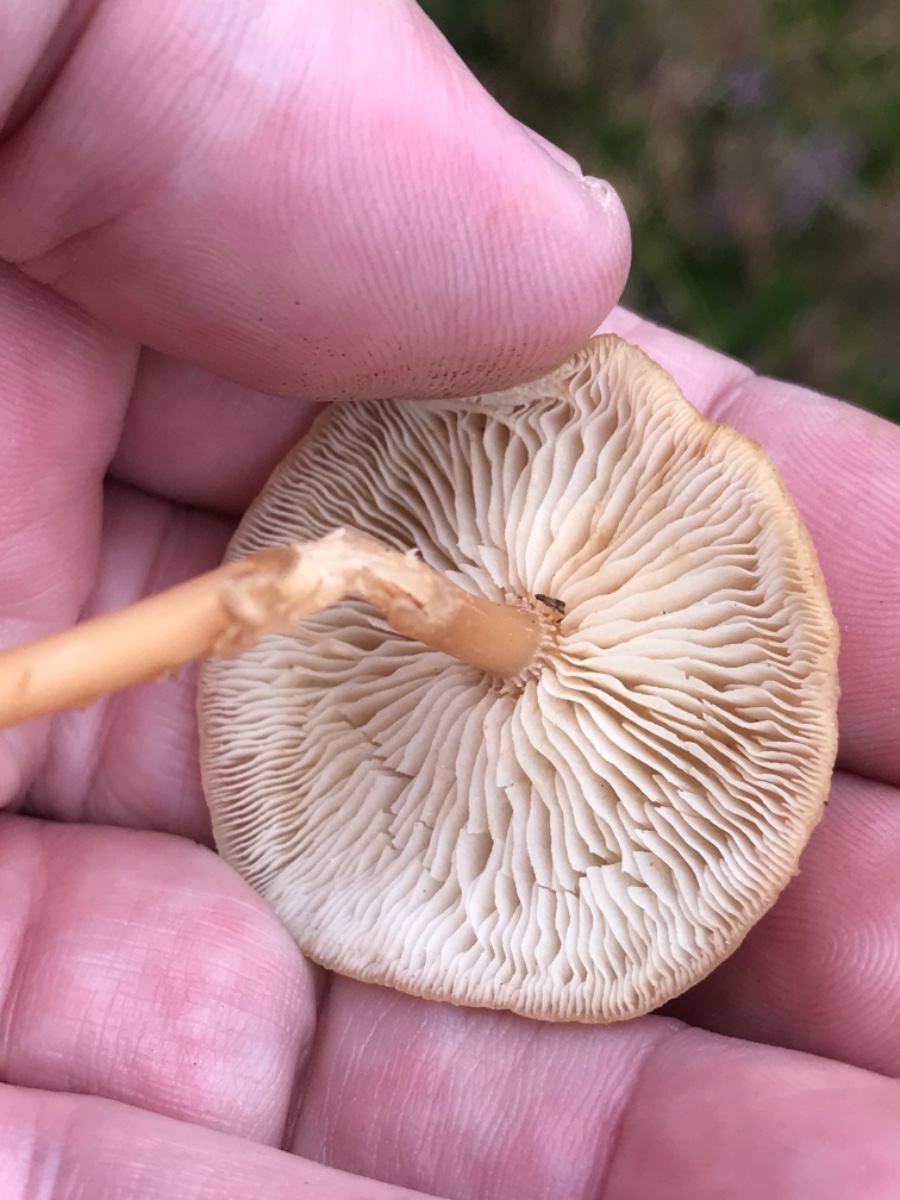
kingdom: Fungi
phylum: Basidiomycota
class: Agaricomycetes
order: Agaricales
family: Marasmiaceae
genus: Marasmius
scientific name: Marasmius oreades
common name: elledans-bruskhat
